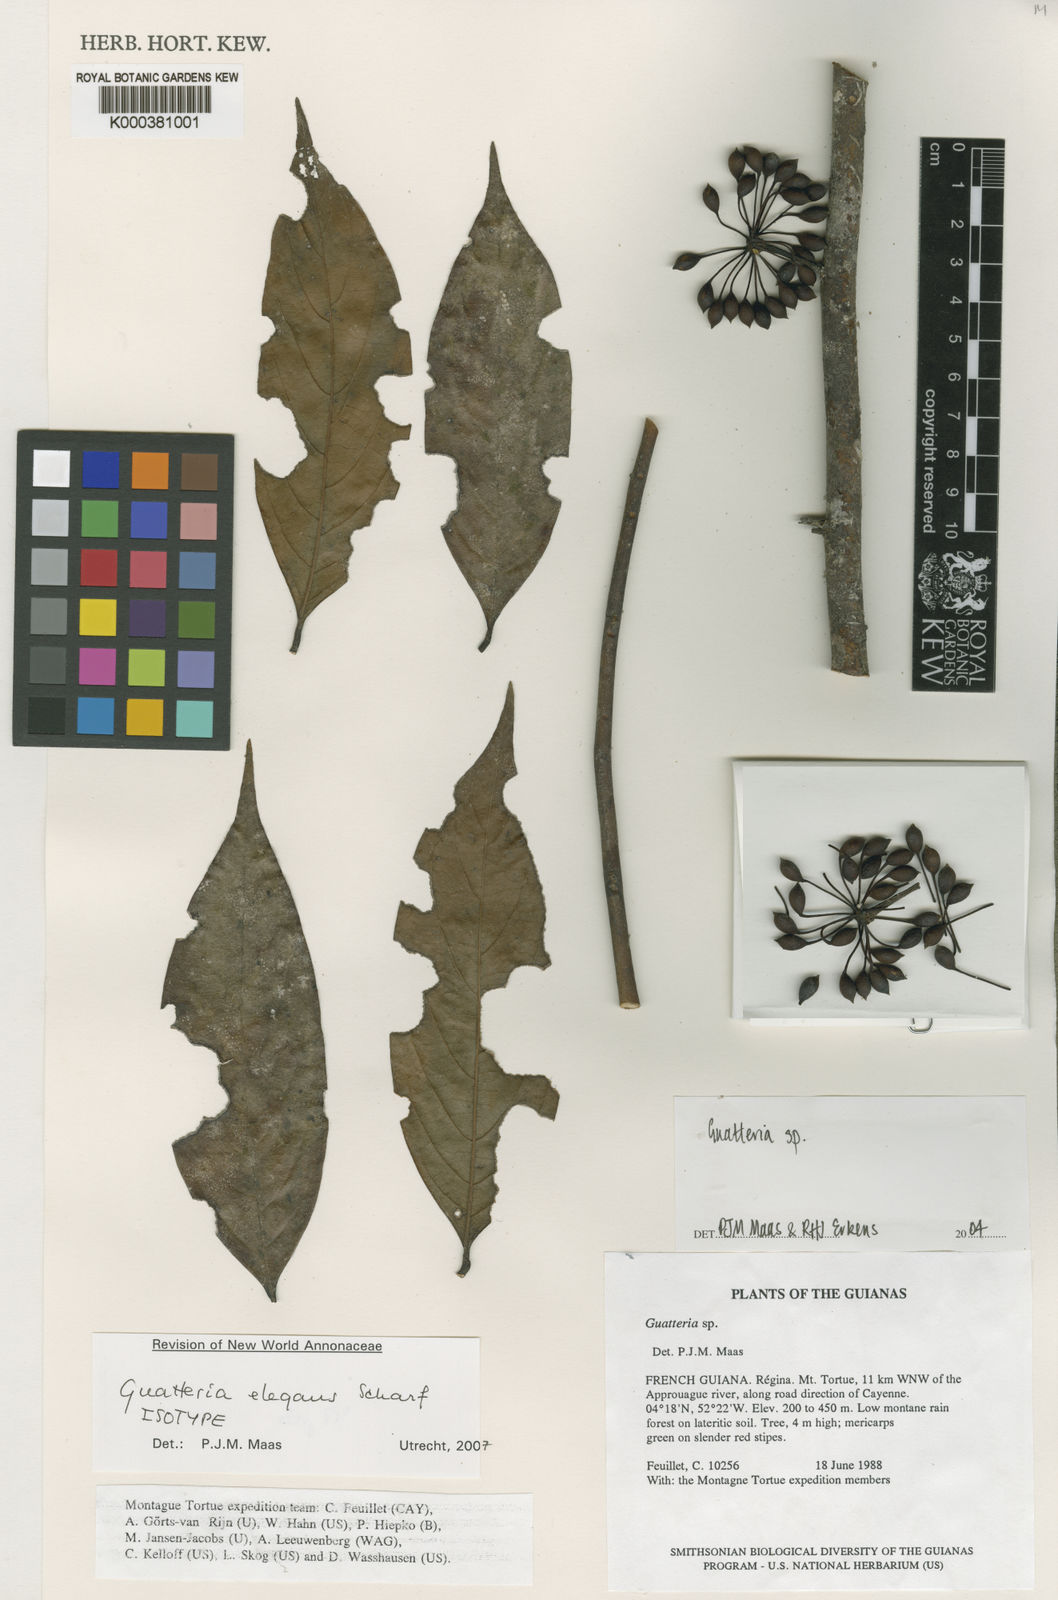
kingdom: Plantae
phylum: Tracheophyta
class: Magnoliopsida
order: Magnoliales
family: Annonaceae
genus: Guatteria
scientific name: Guatteria elegans
